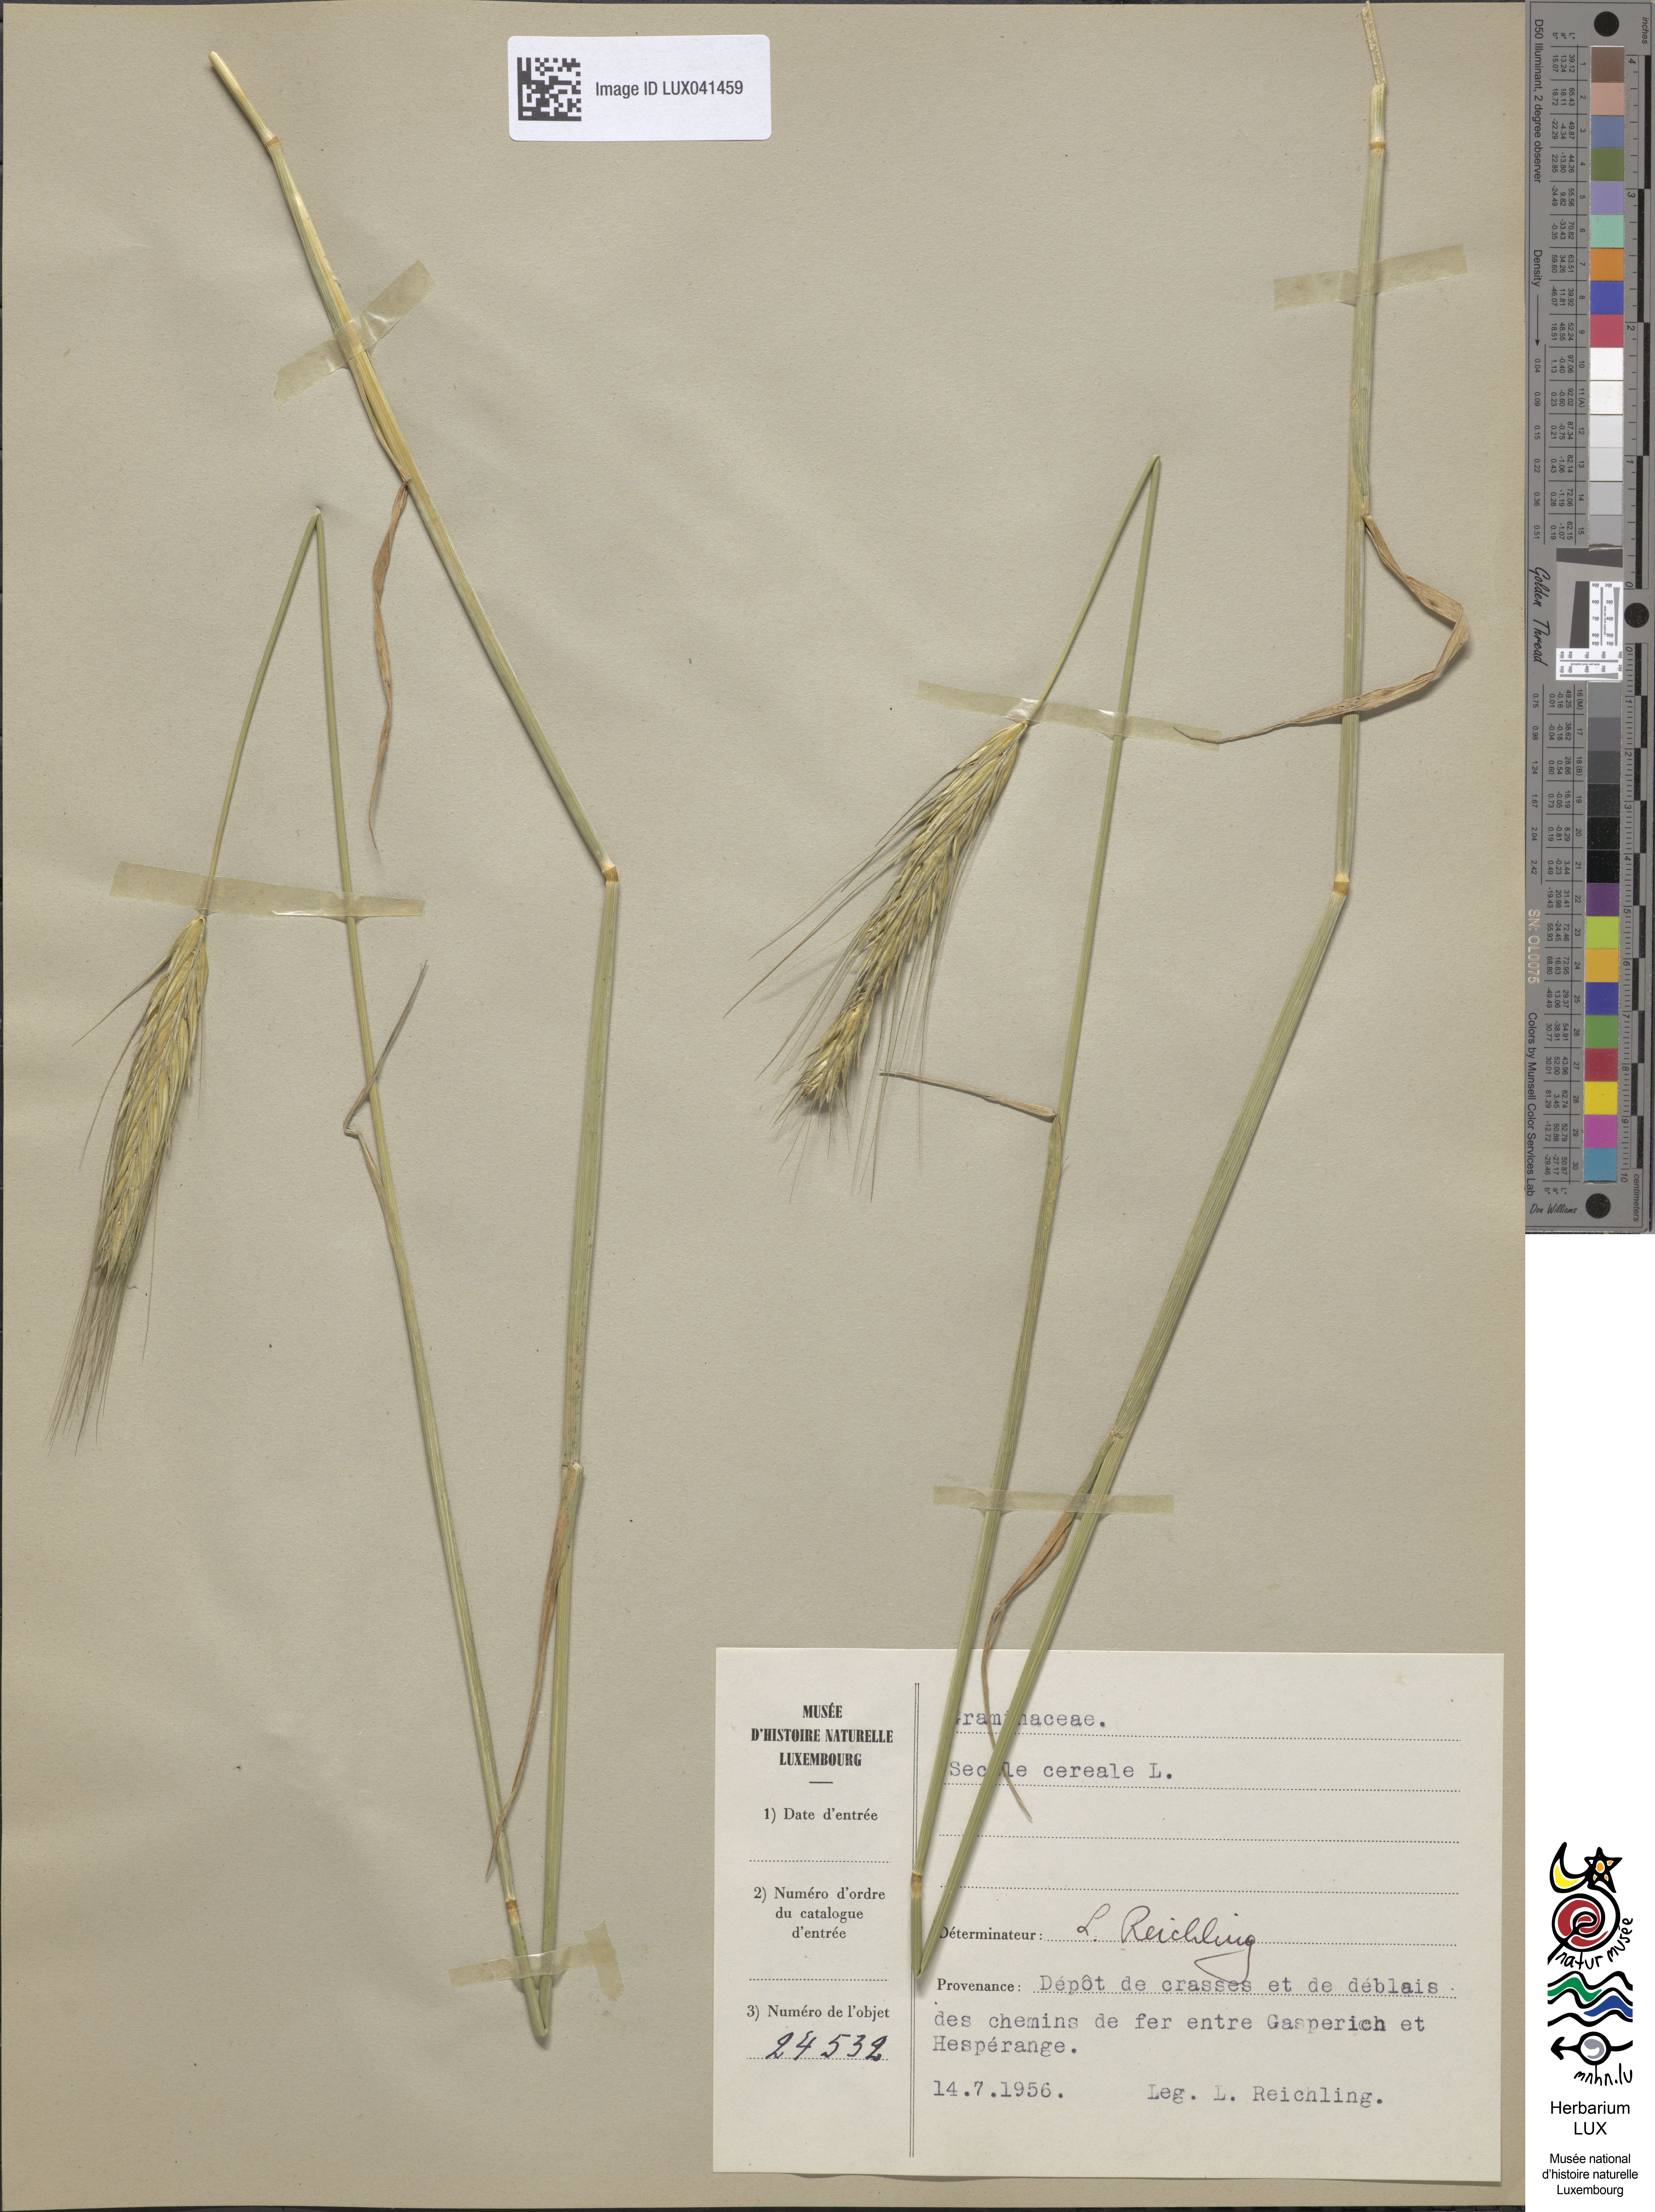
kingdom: Plantae
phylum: Tracheophyta
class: Liliopsida
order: Poales
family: Poaceae
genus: Secale
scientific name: Secale cereale
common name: Rye
